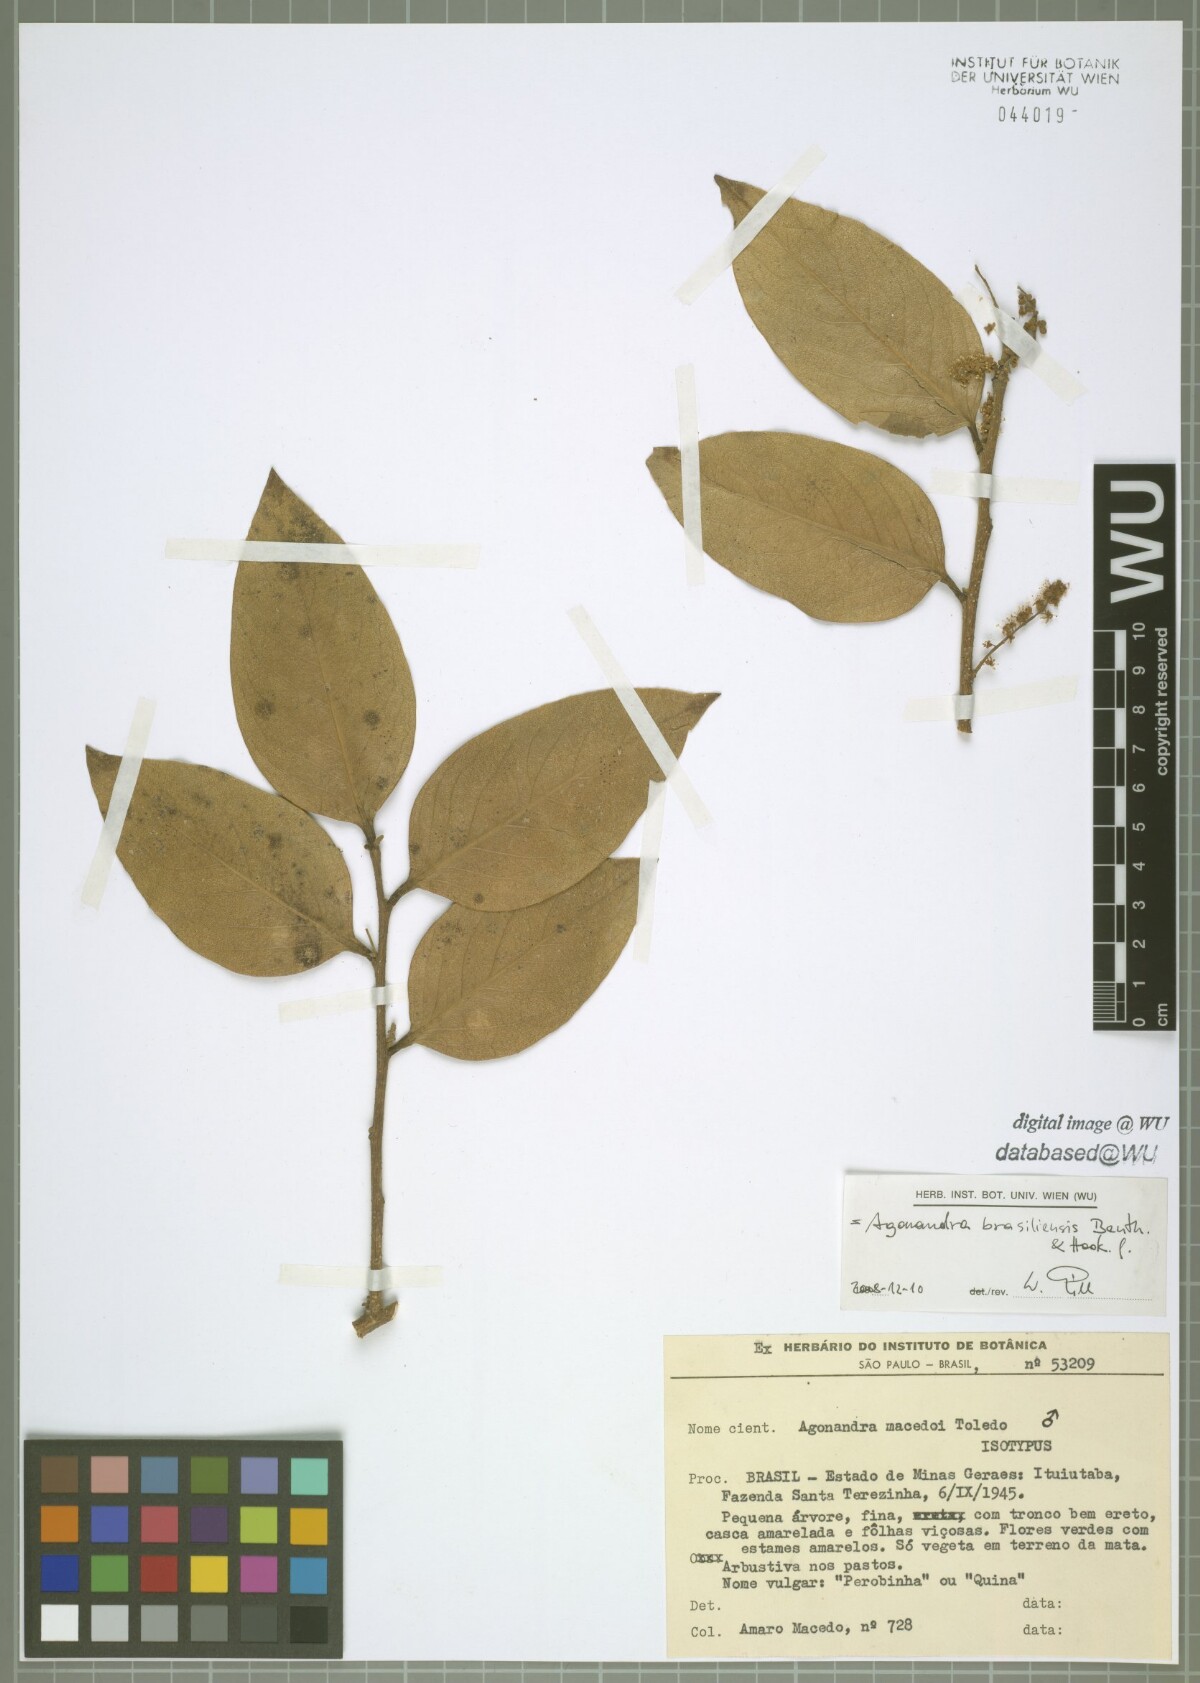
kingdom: Plantae
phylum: Tracheophyta
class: Magnoliopsida
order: Santalales
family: Opiliaceae
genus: Agonandra
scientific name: Agonandra brasiliensis
